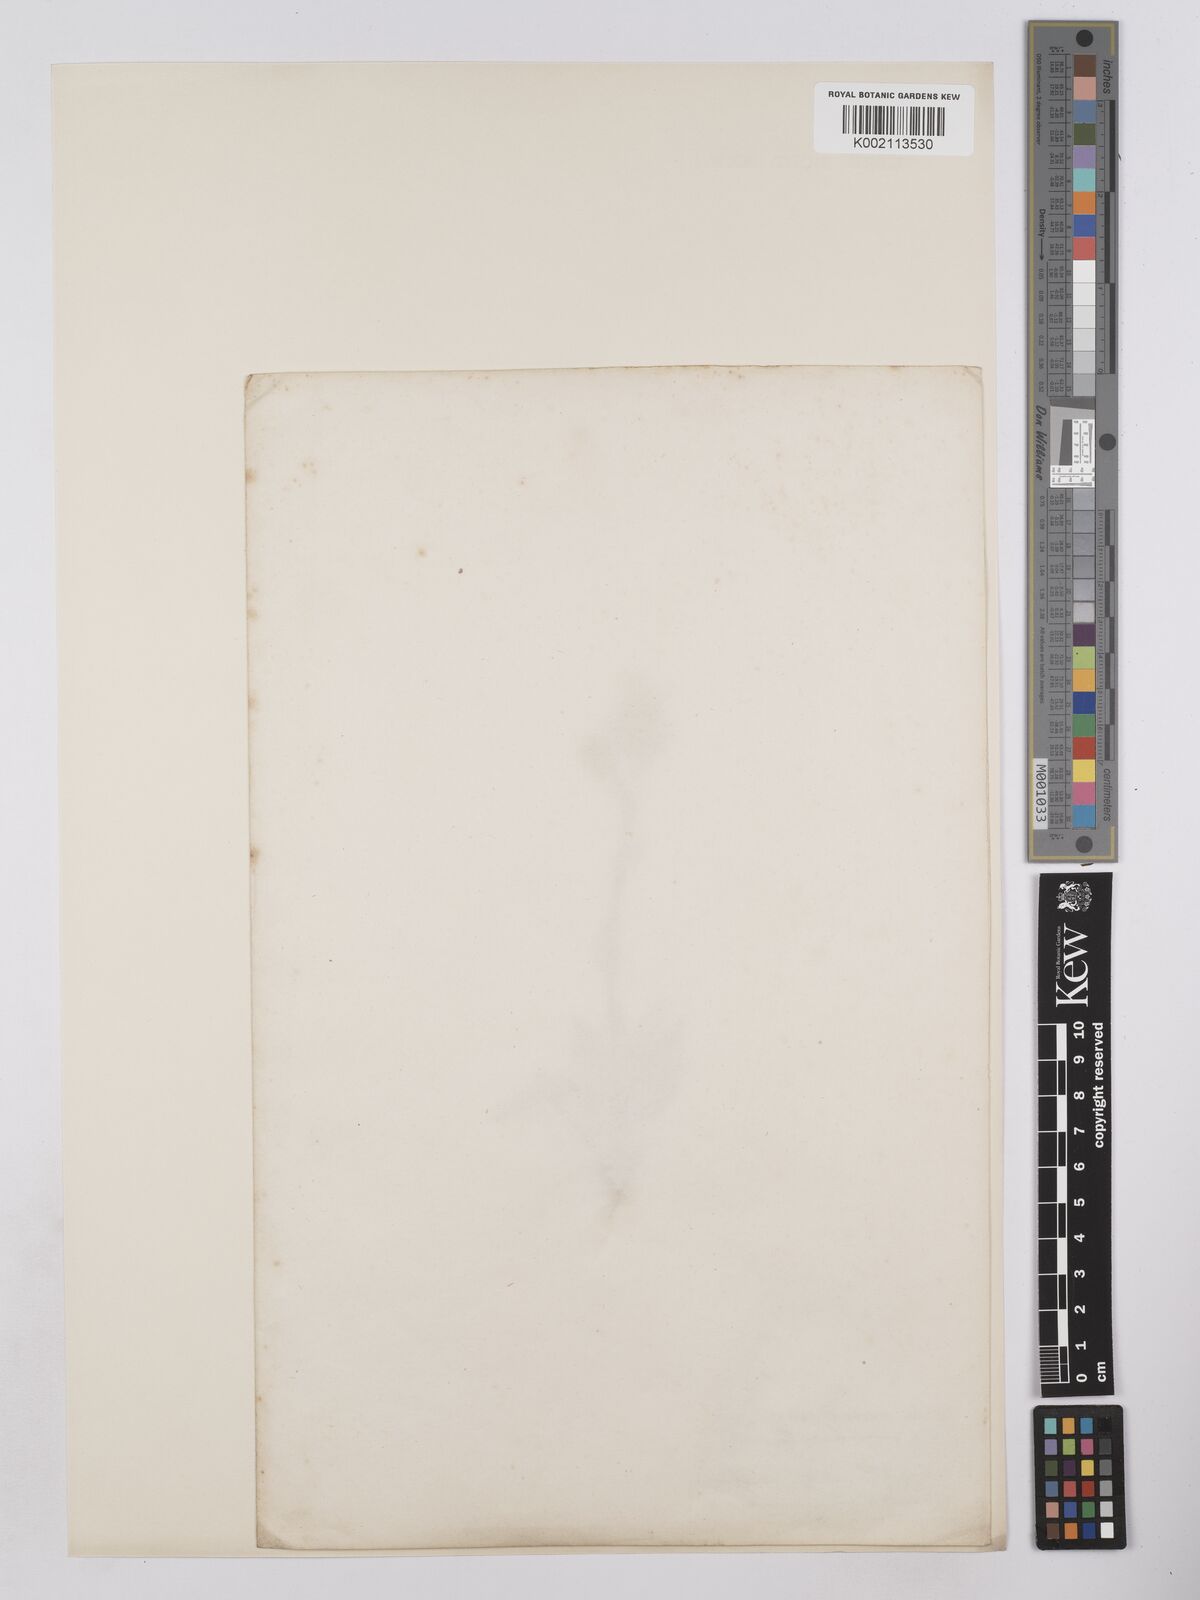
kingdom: Plantae
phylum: Tracheophyta
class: Magnoliopsida
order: Asterales
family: Asteraceae
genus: Hieracium
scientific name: Hieracium
